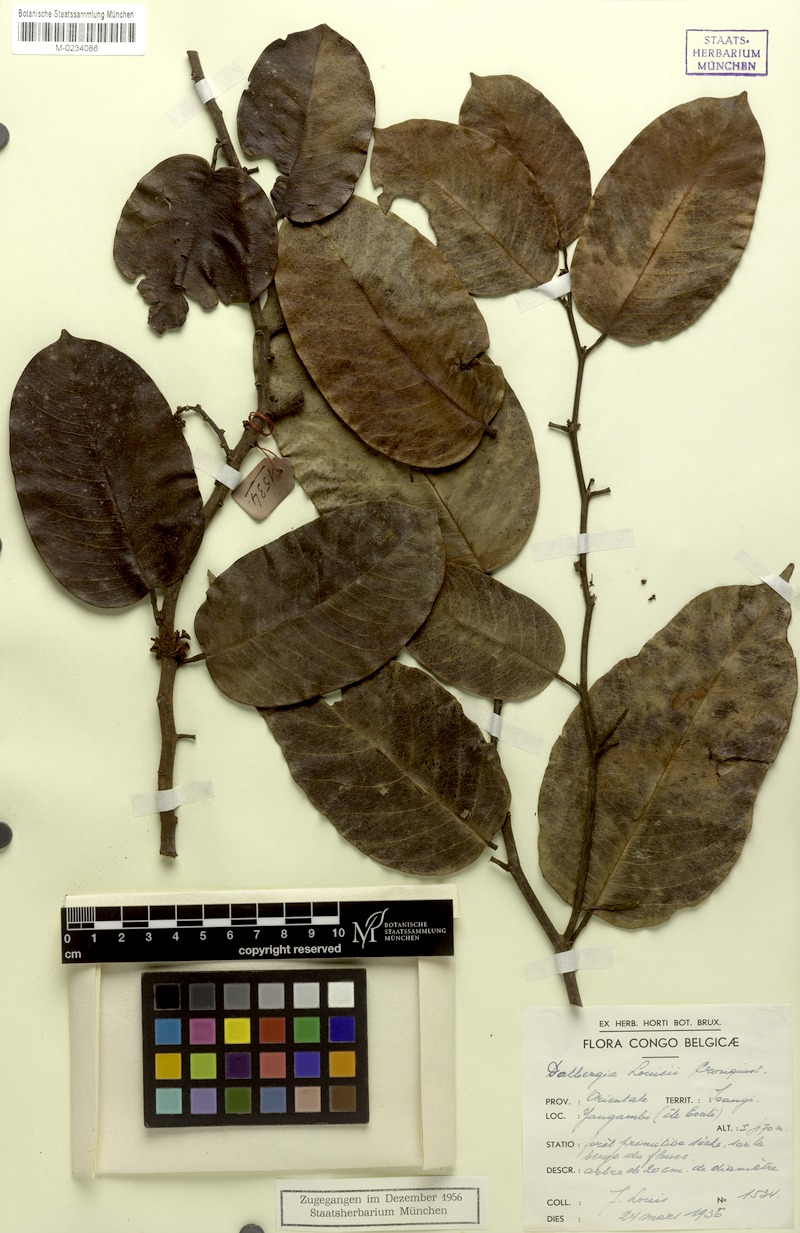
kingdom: Plantae
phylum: Tracheophyta
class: Magnoliopsida
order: Fabales
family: Fabaceae
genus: Dalbergia
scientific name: Dalbergia louisii
